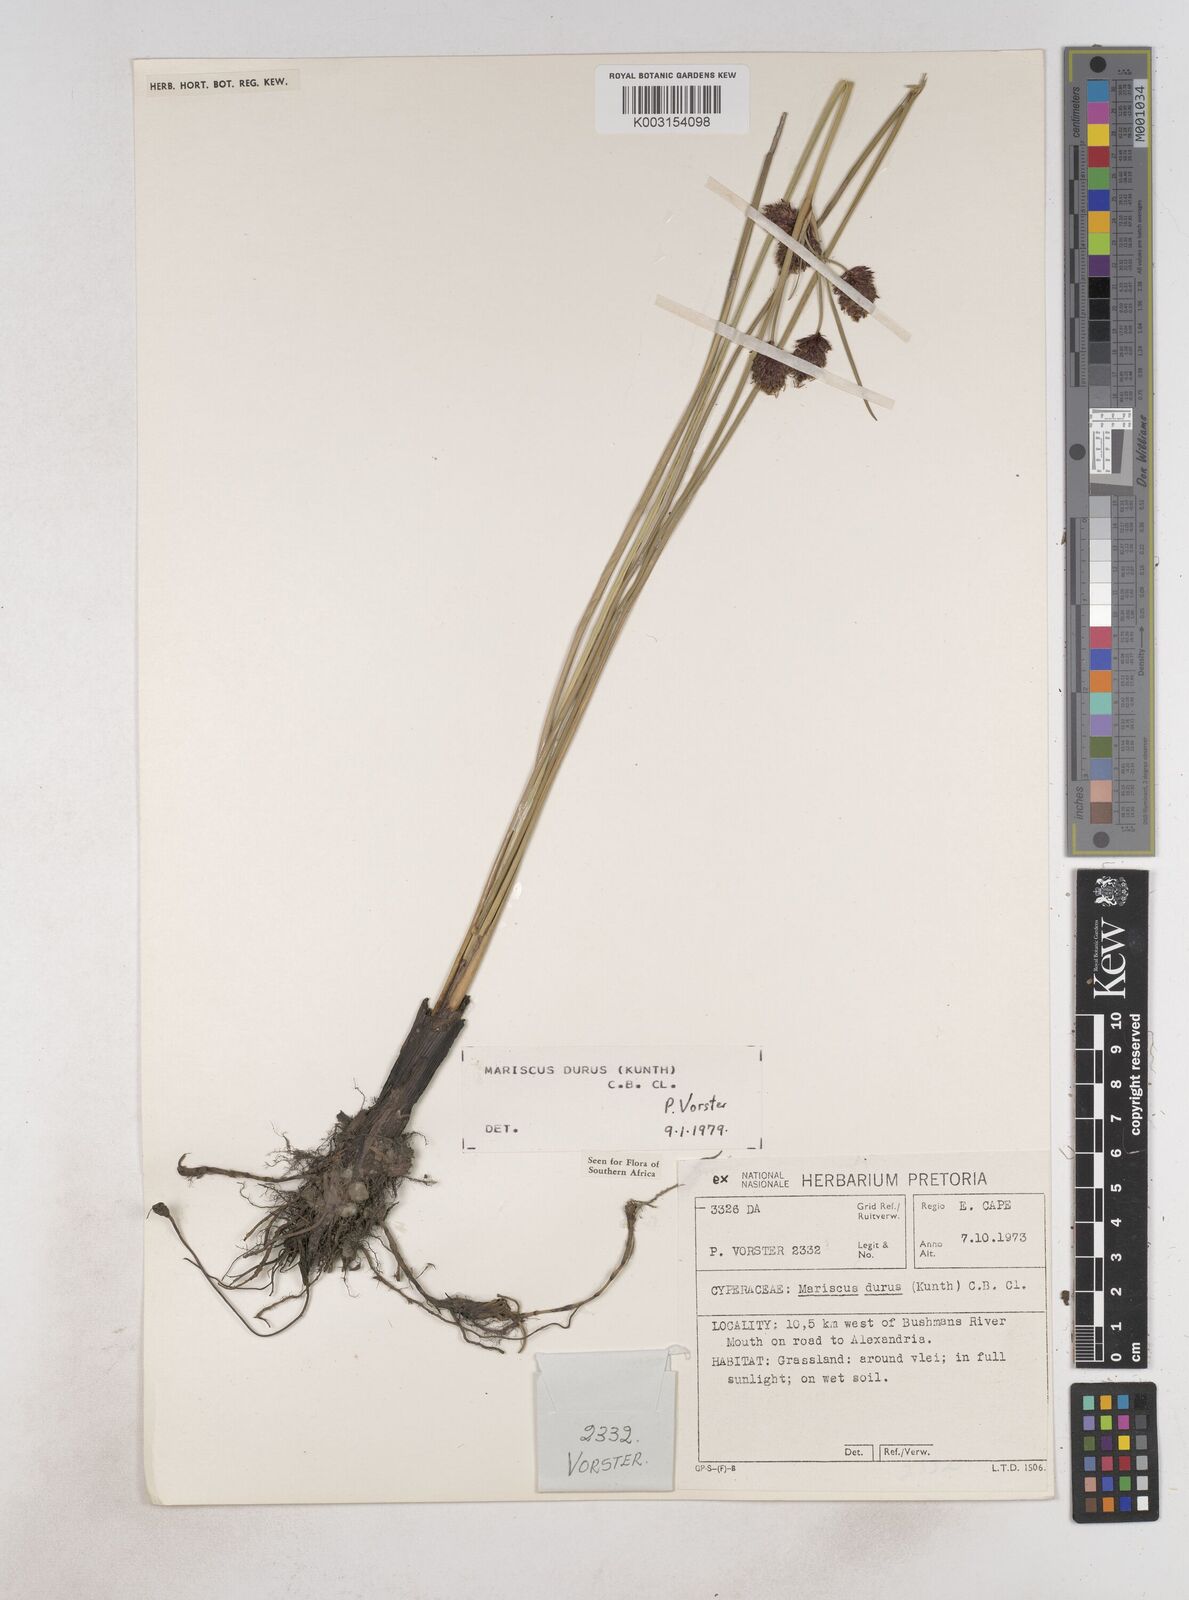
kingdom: Plantae
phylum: Tracheophyta
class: Liliopsida
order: Poales
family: Cyperaceae
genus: Cyperus
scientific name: Cyperus durus
